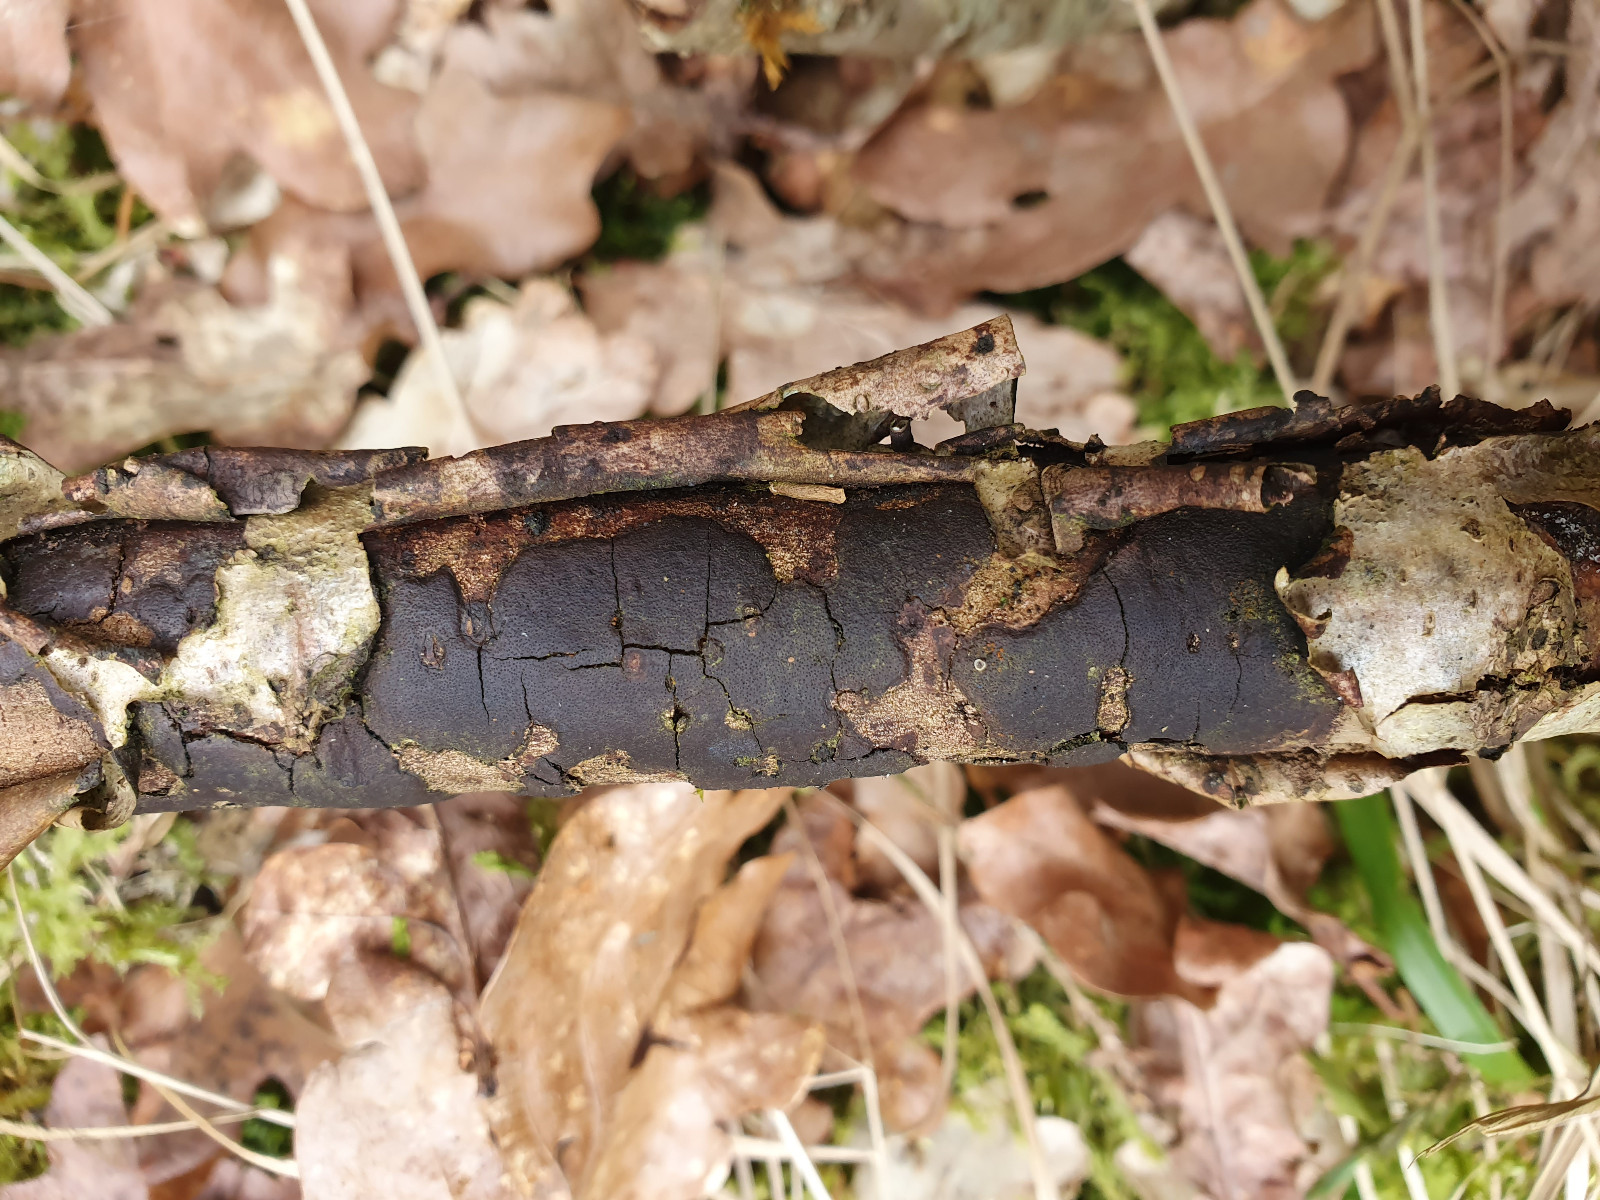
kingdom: Fungi
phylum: Ascomycota
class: Sordariomycetes
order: Xylariales
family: Diatrypaceae
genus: Diatrype
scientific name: Diatrype stigma
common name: udbredt kulskorpe
